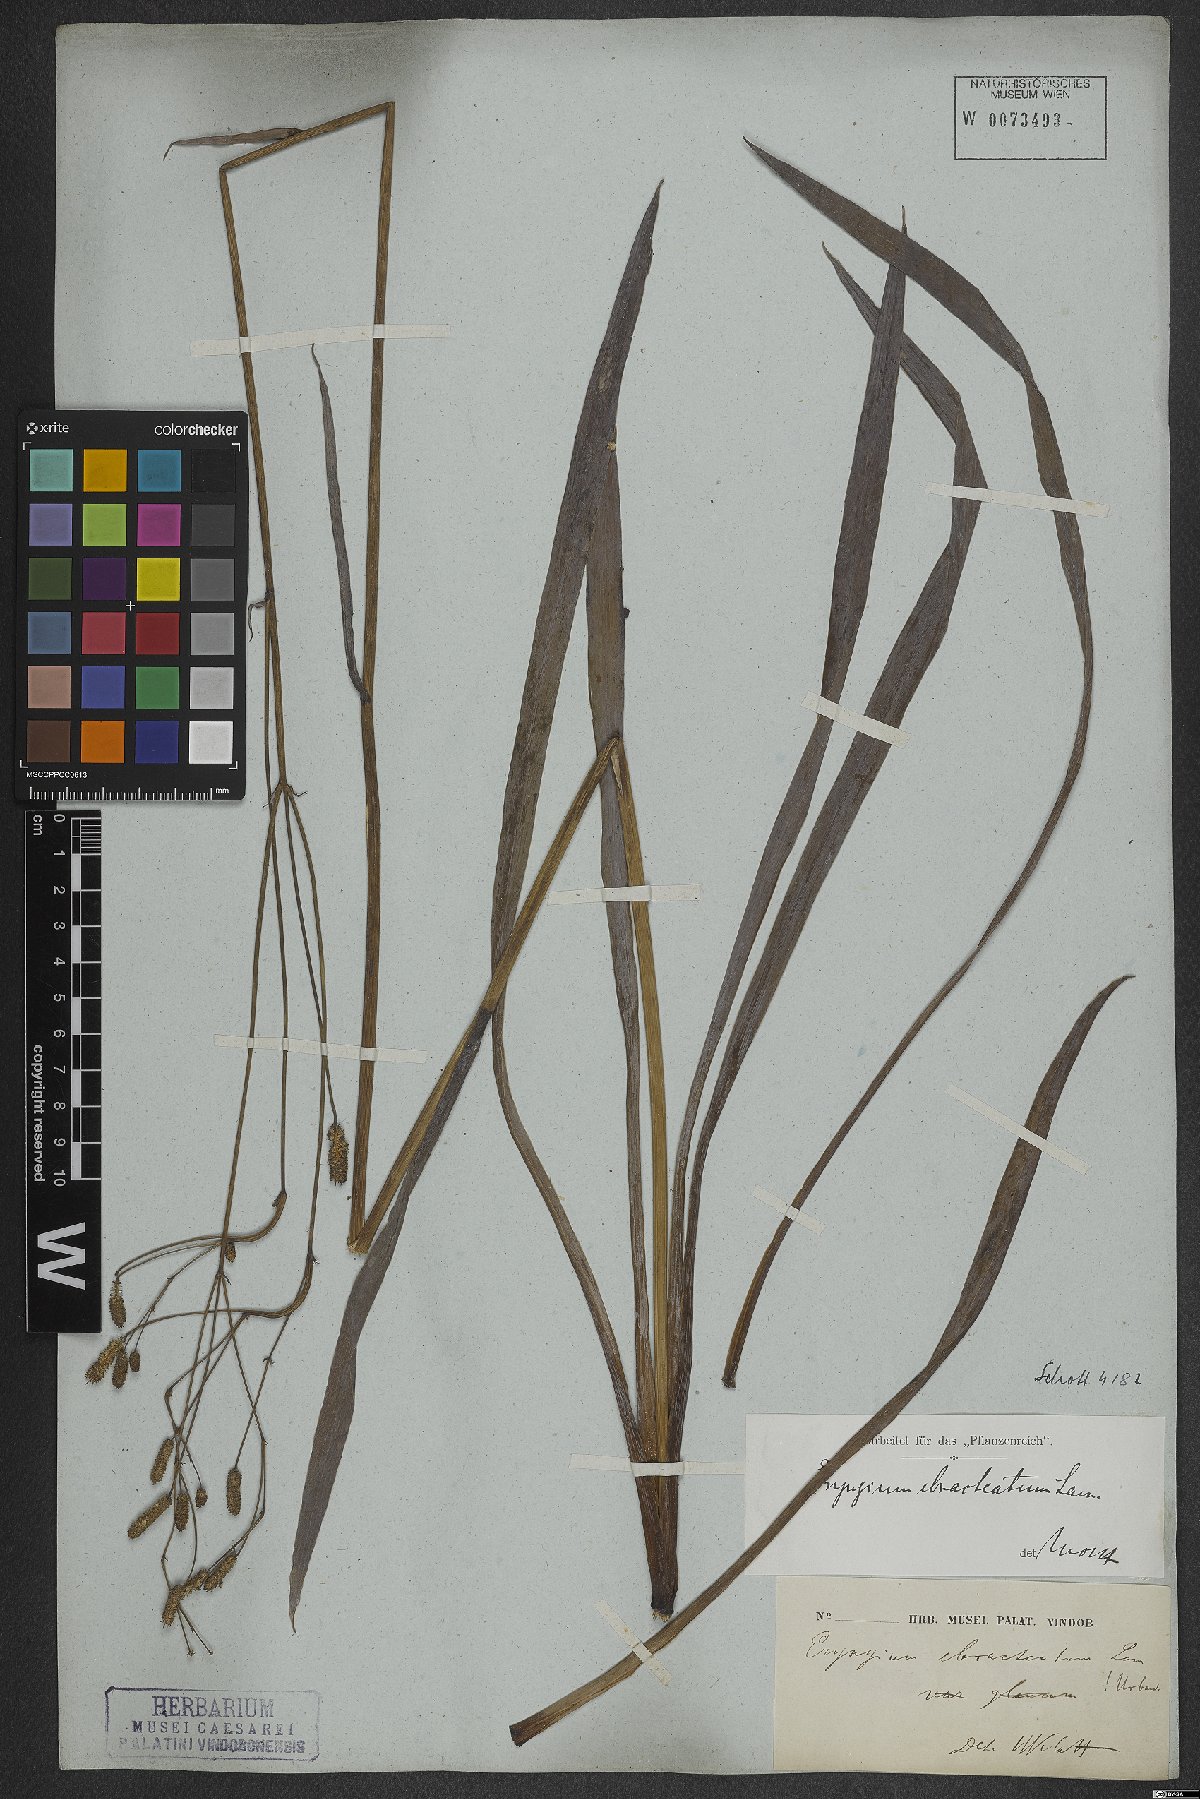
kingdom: Plantae
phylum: Tracheophyta
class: Magnoliopsida
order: Apiales
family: Apiaceae
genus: Eryngium
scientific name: Eryngium ebracteatum
